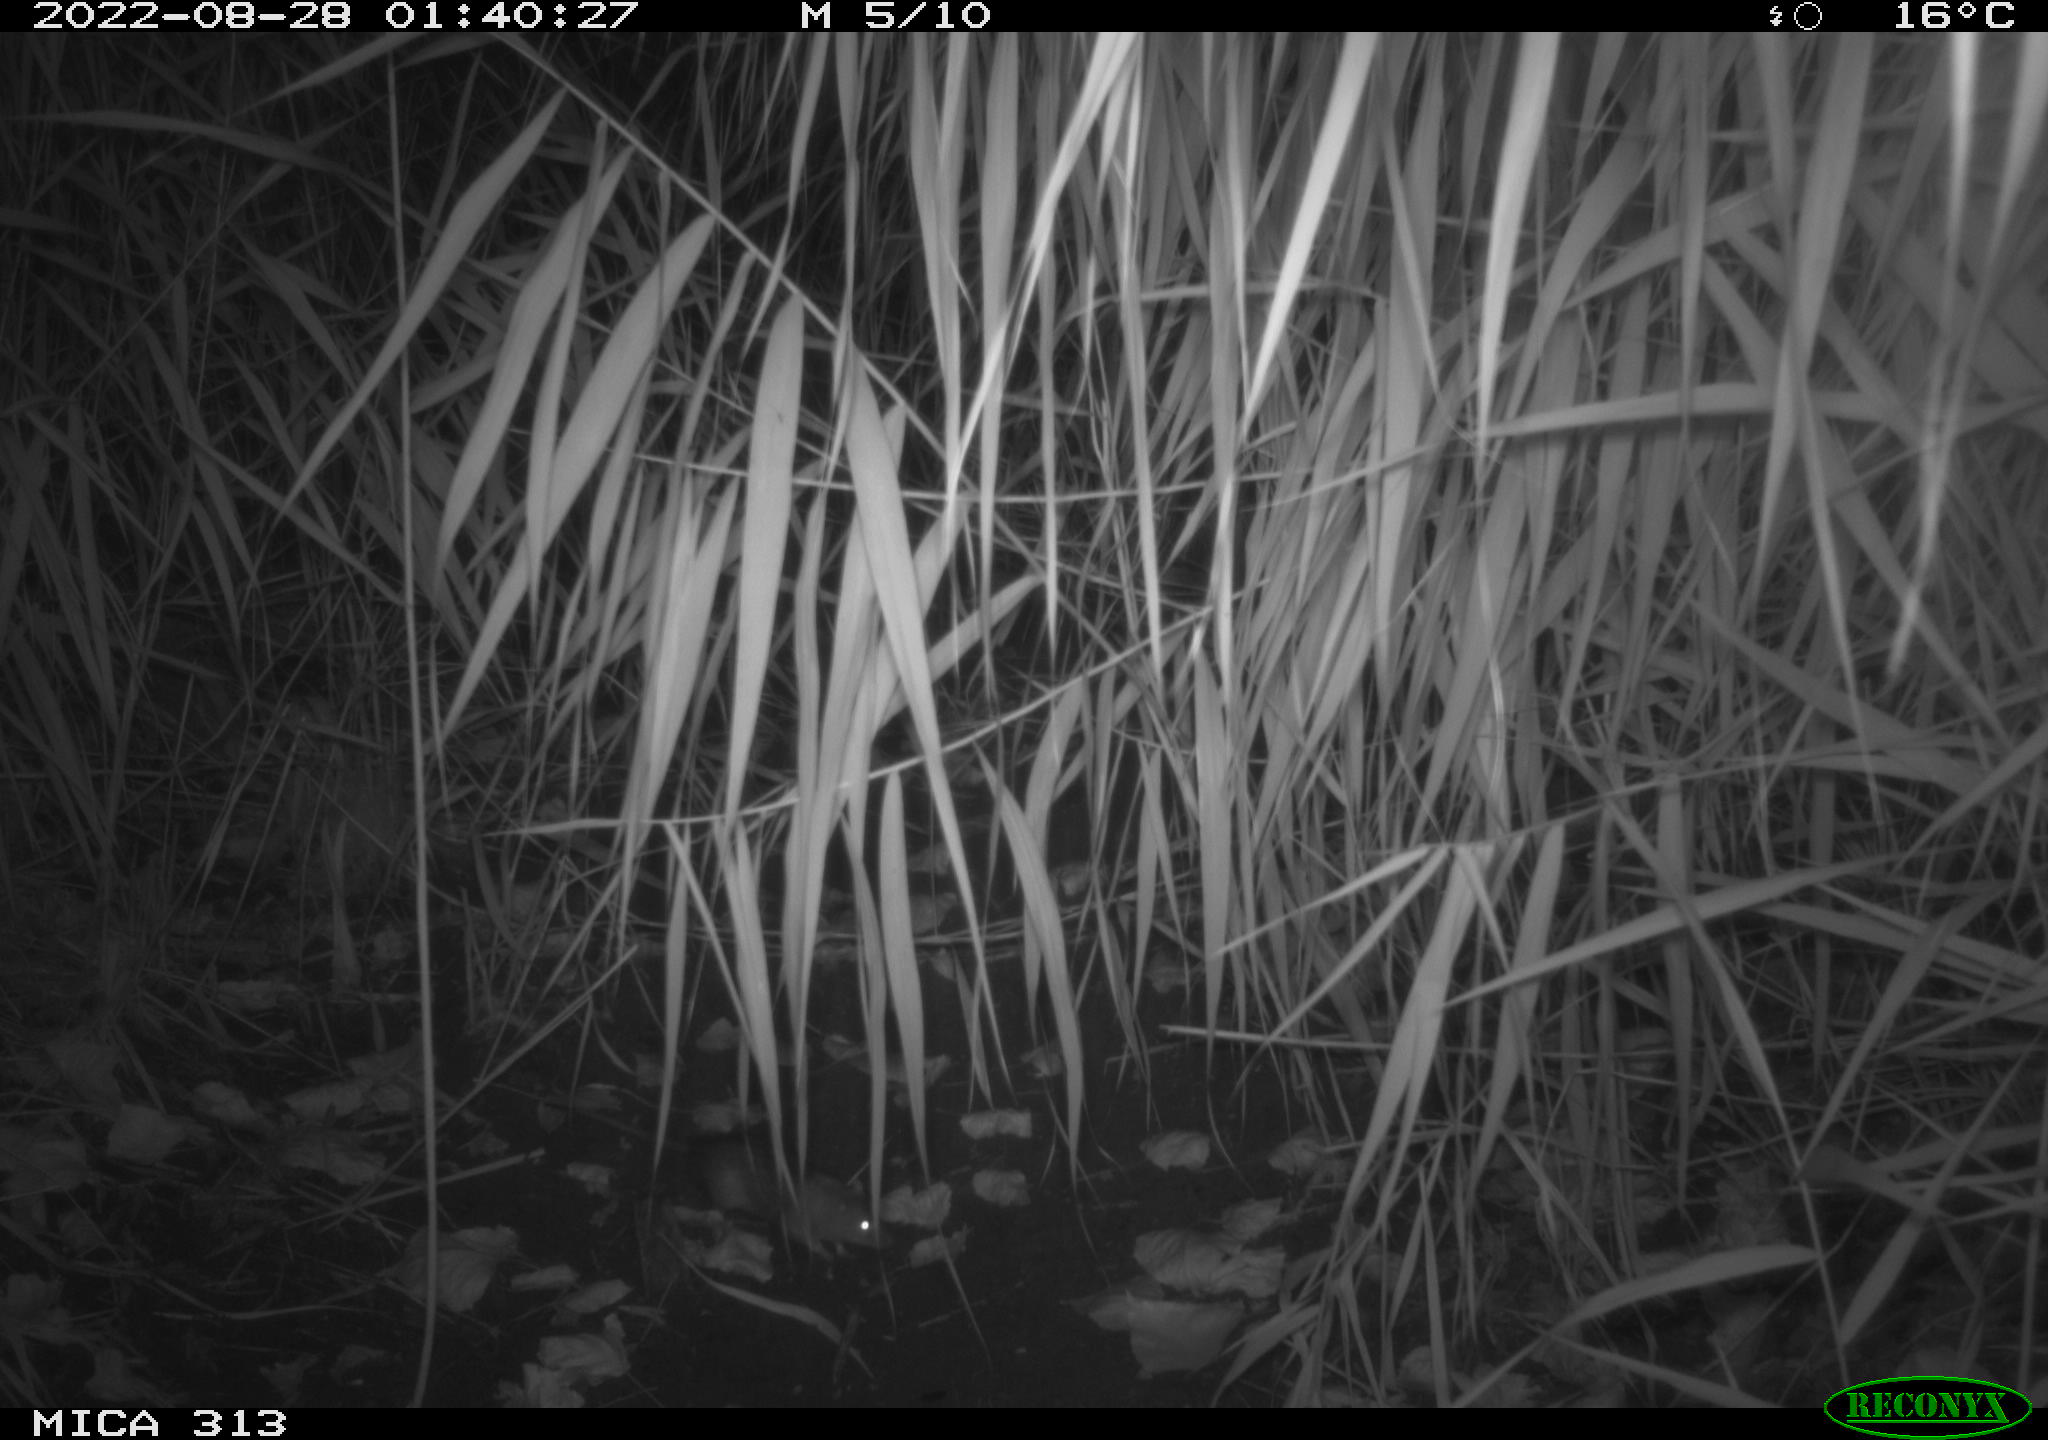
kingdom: Animalia
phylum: Chordata
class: Mammalia
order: Rodentia
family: Muridae
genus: Rattus
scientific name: Rattus norvegicus
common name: Brown rat
